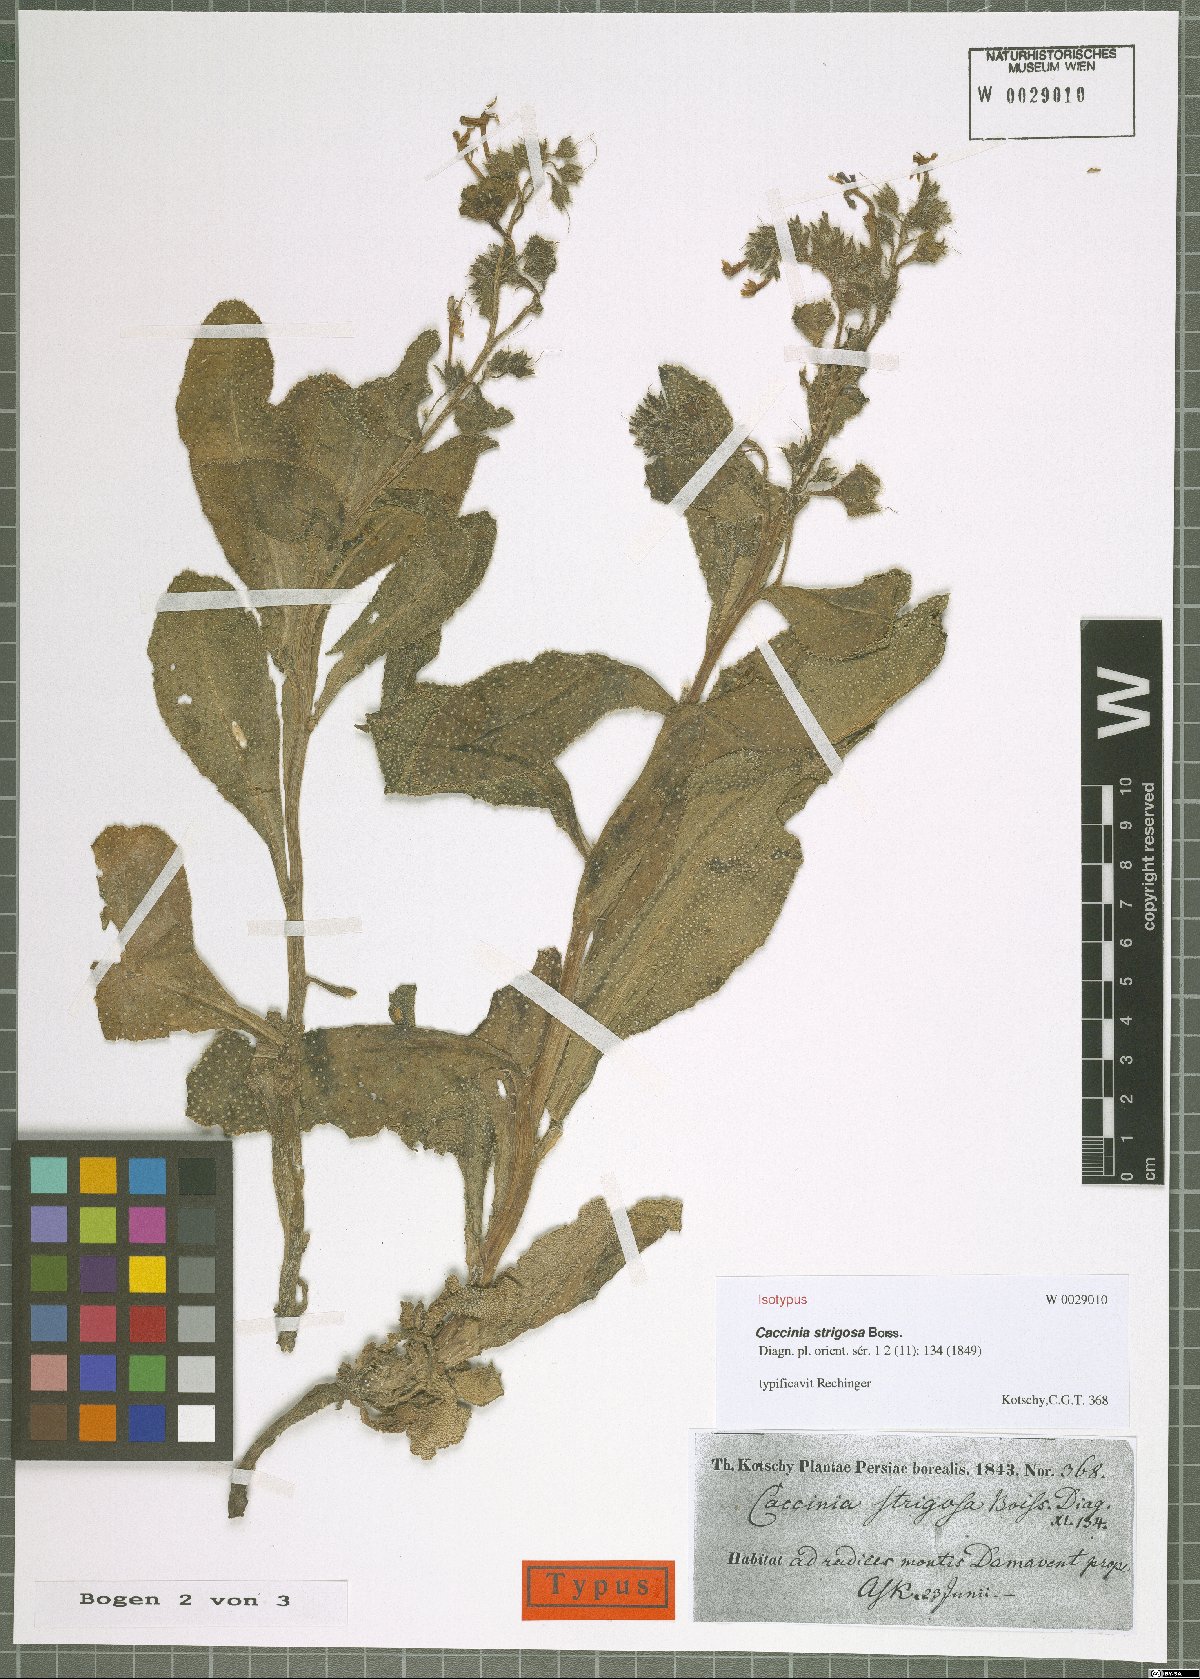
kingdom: Plantae
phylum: Tracheophyta
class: Magnoliopsida
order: Boraginales
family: Boraginaceae
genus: Caccinia
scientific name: Caccinia strigosa
